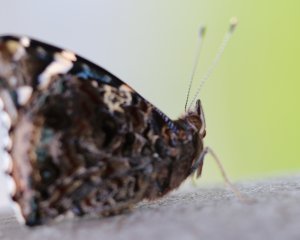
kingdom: Animalia
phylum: Arthropoda
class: Insecta
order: Lepidoptera
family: Nymphalidae
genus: Vanessa
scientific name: Vanessa atalanta
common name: Red Admiral
